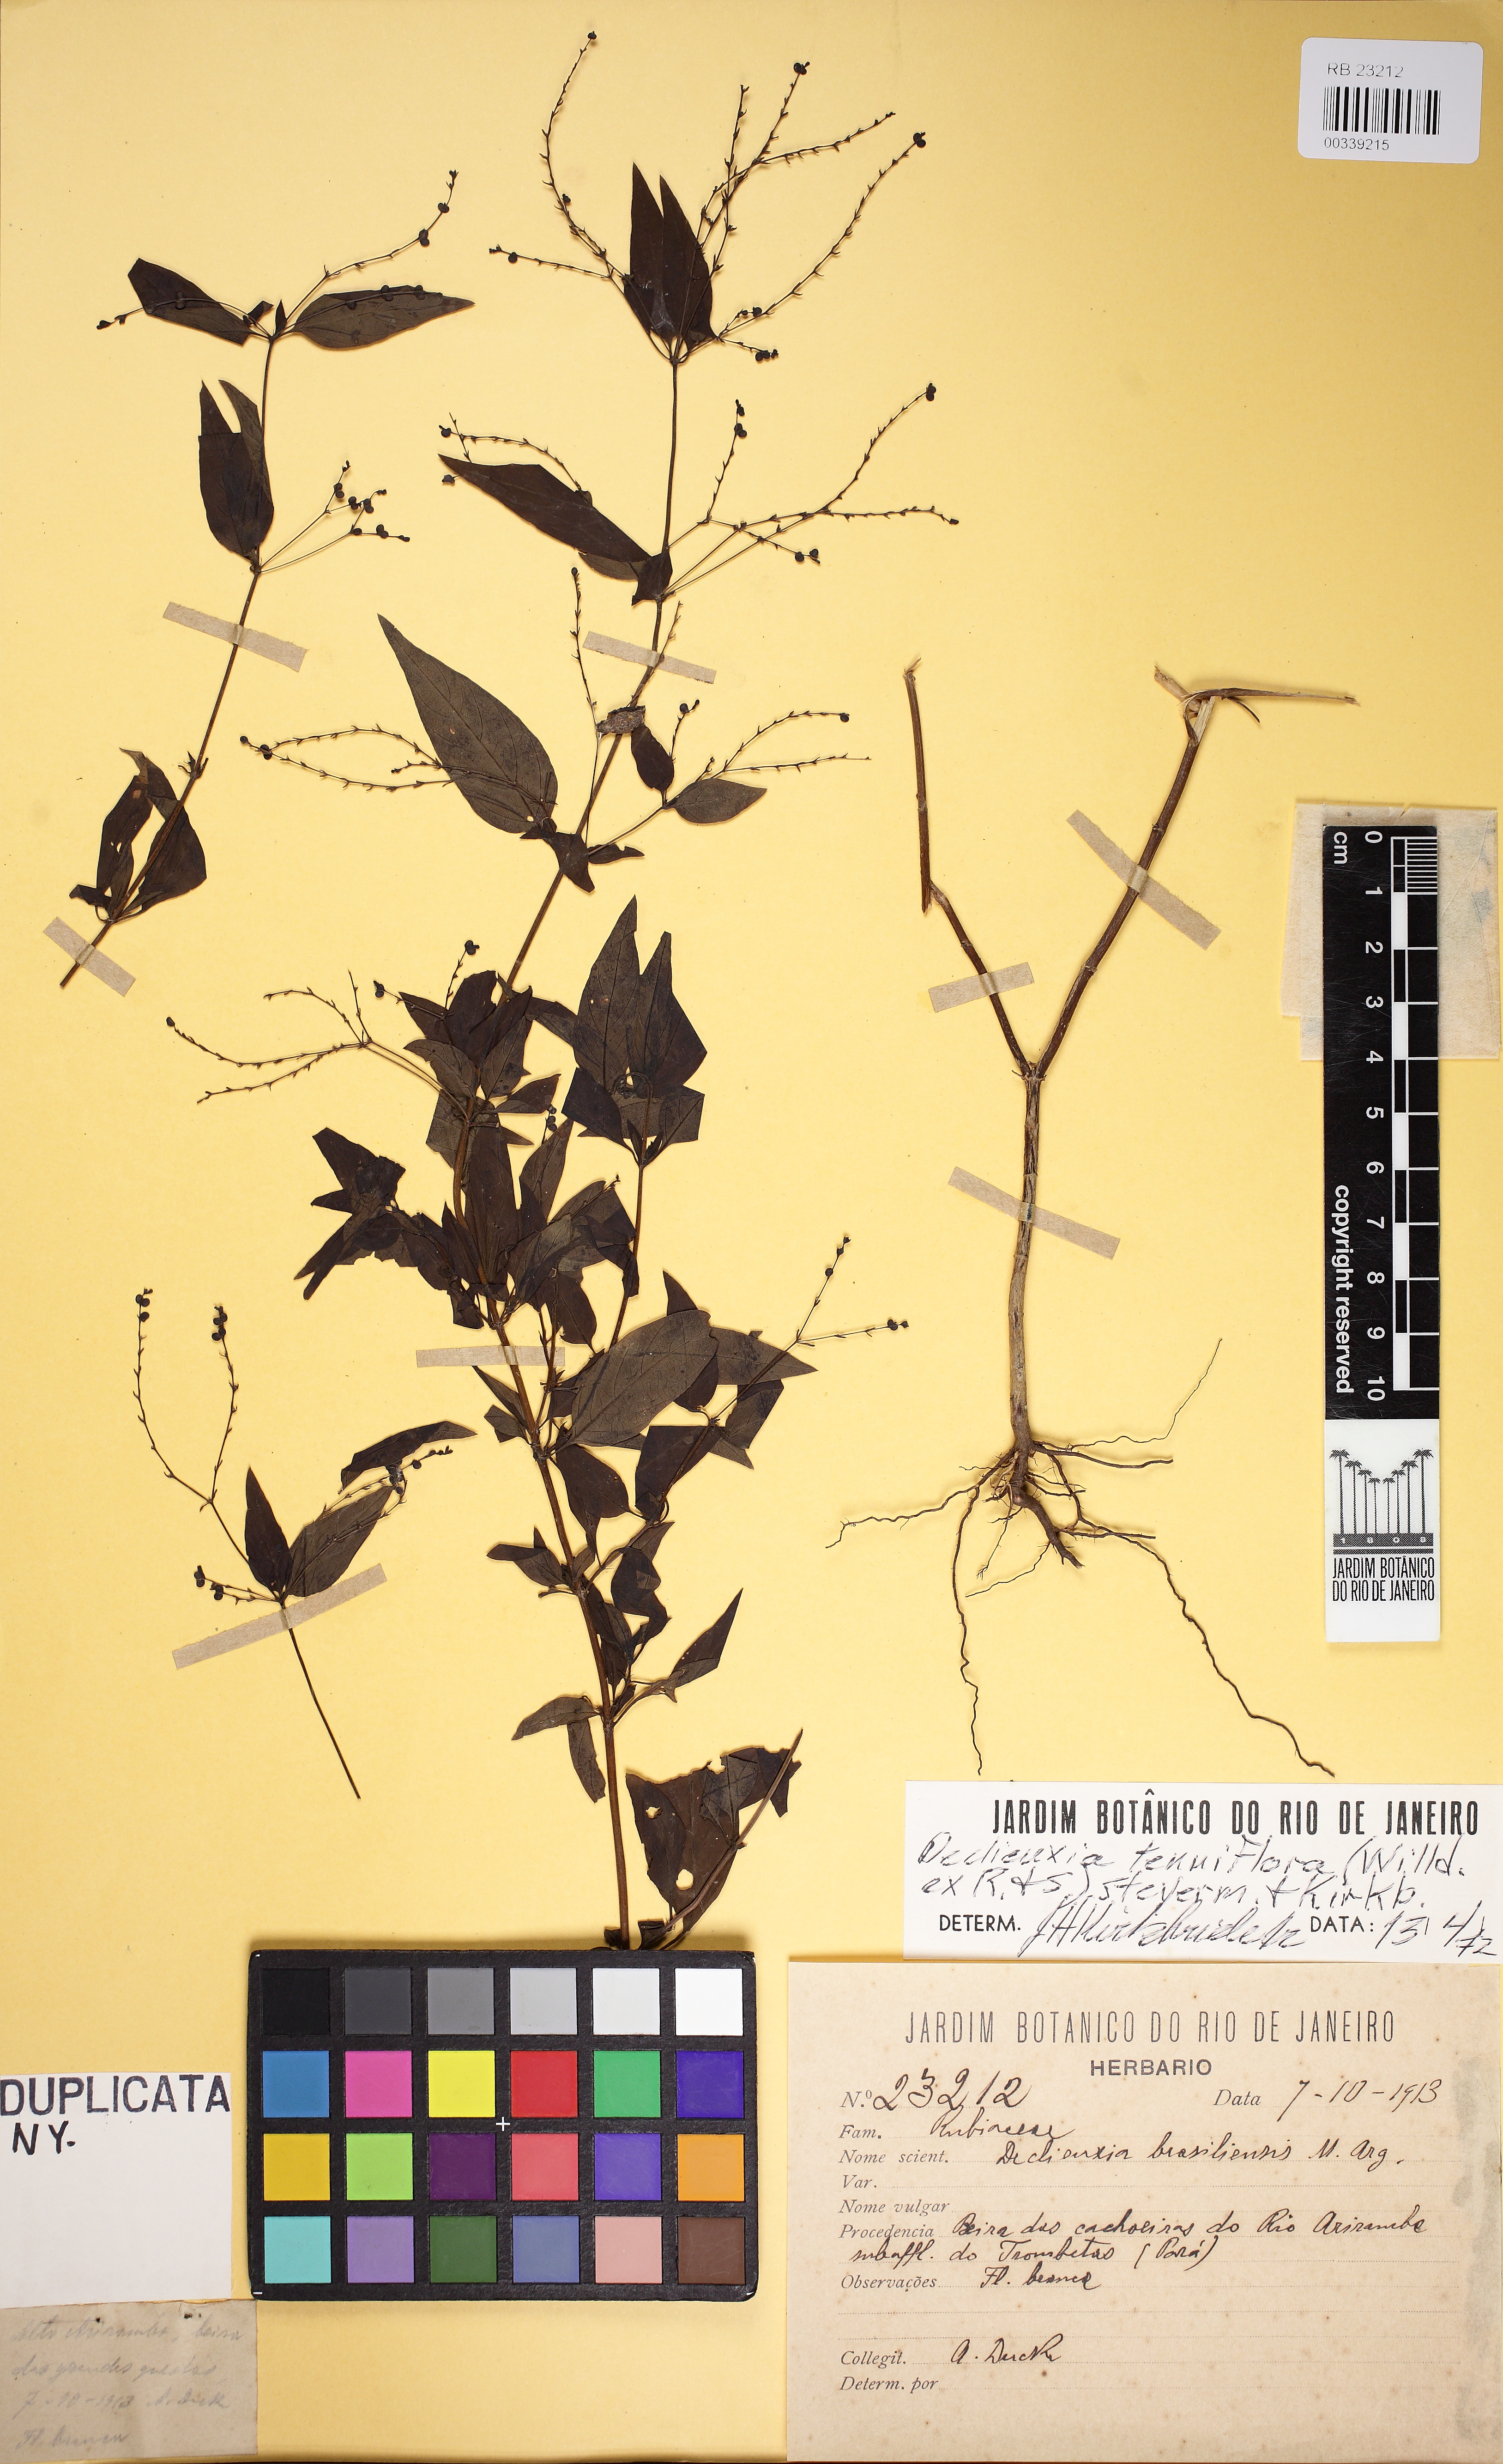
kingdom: Plantae
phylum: Tracheophyta
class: Magnoliopsida
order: Gentianales
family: Rubiaceae
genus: Declieuxia
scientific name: Declieuxia tenuiflora
